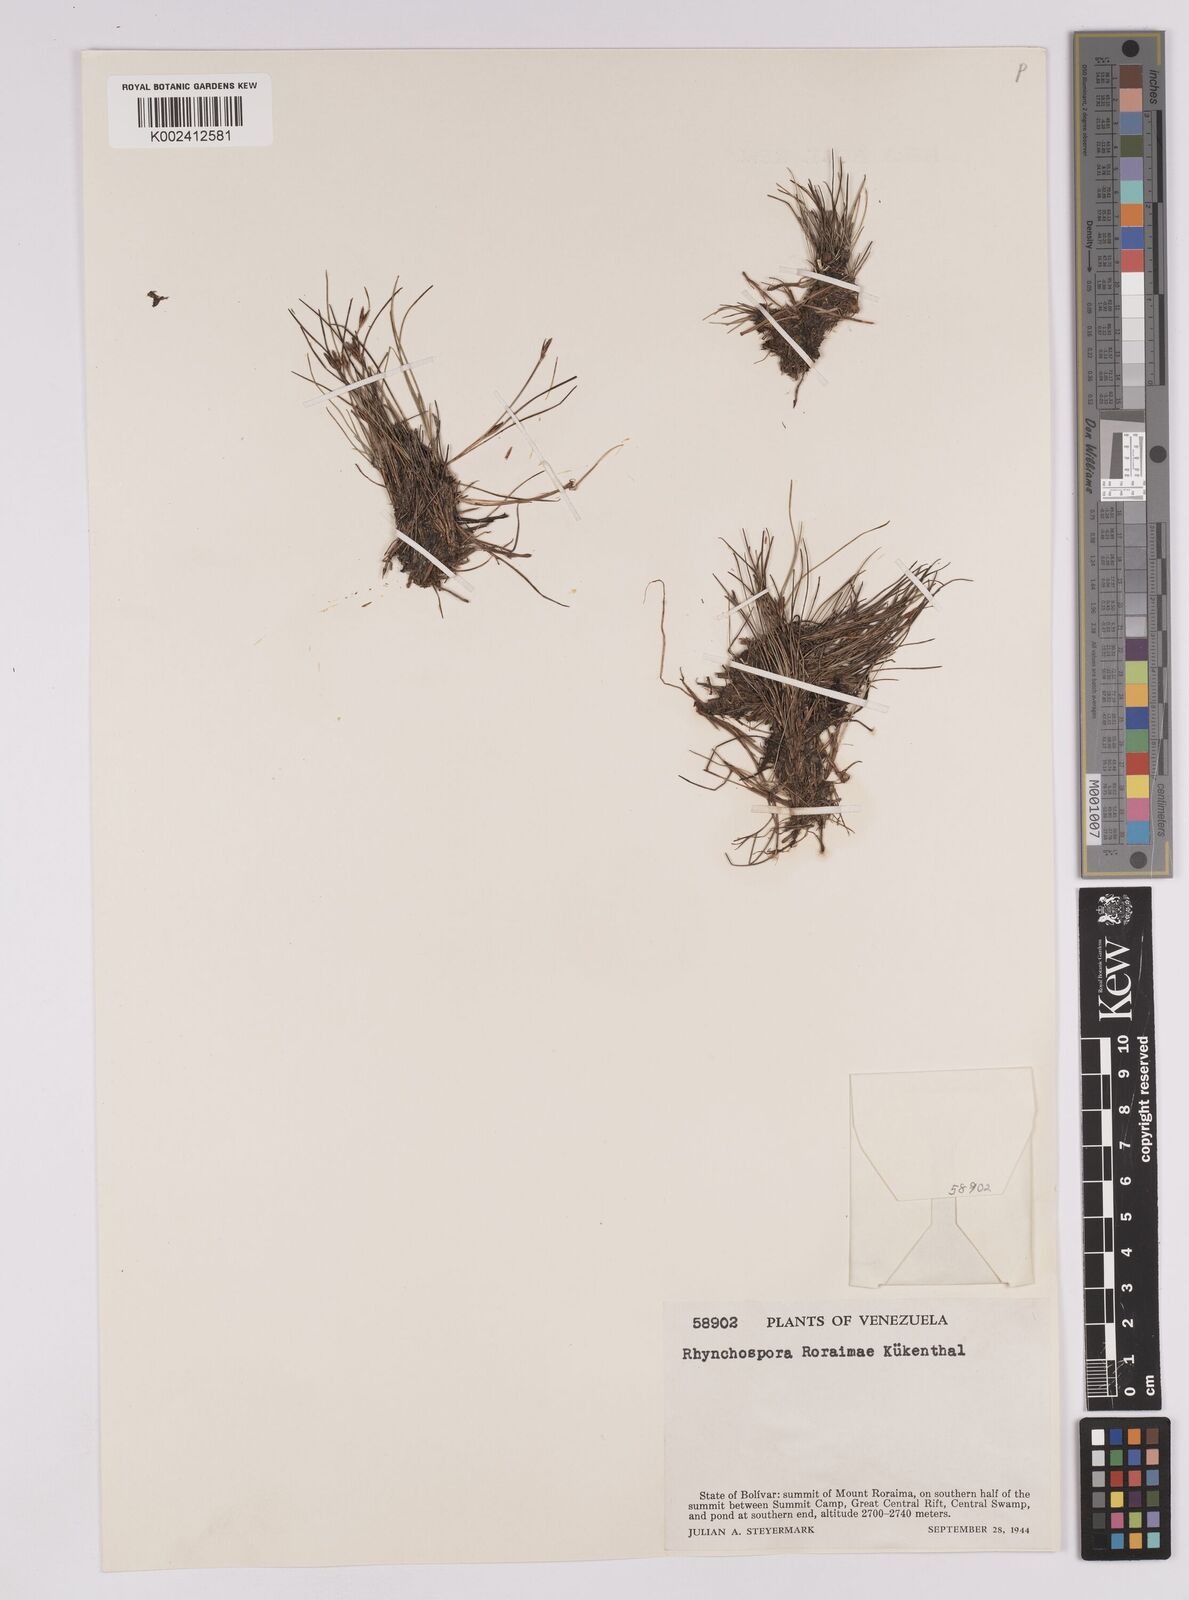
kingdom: Plantae
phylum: Tracheophyta
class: Liliopsida
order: Poales
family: Cyperaceae
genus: Rhynchospora
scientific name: Rhynchospora roraimae
